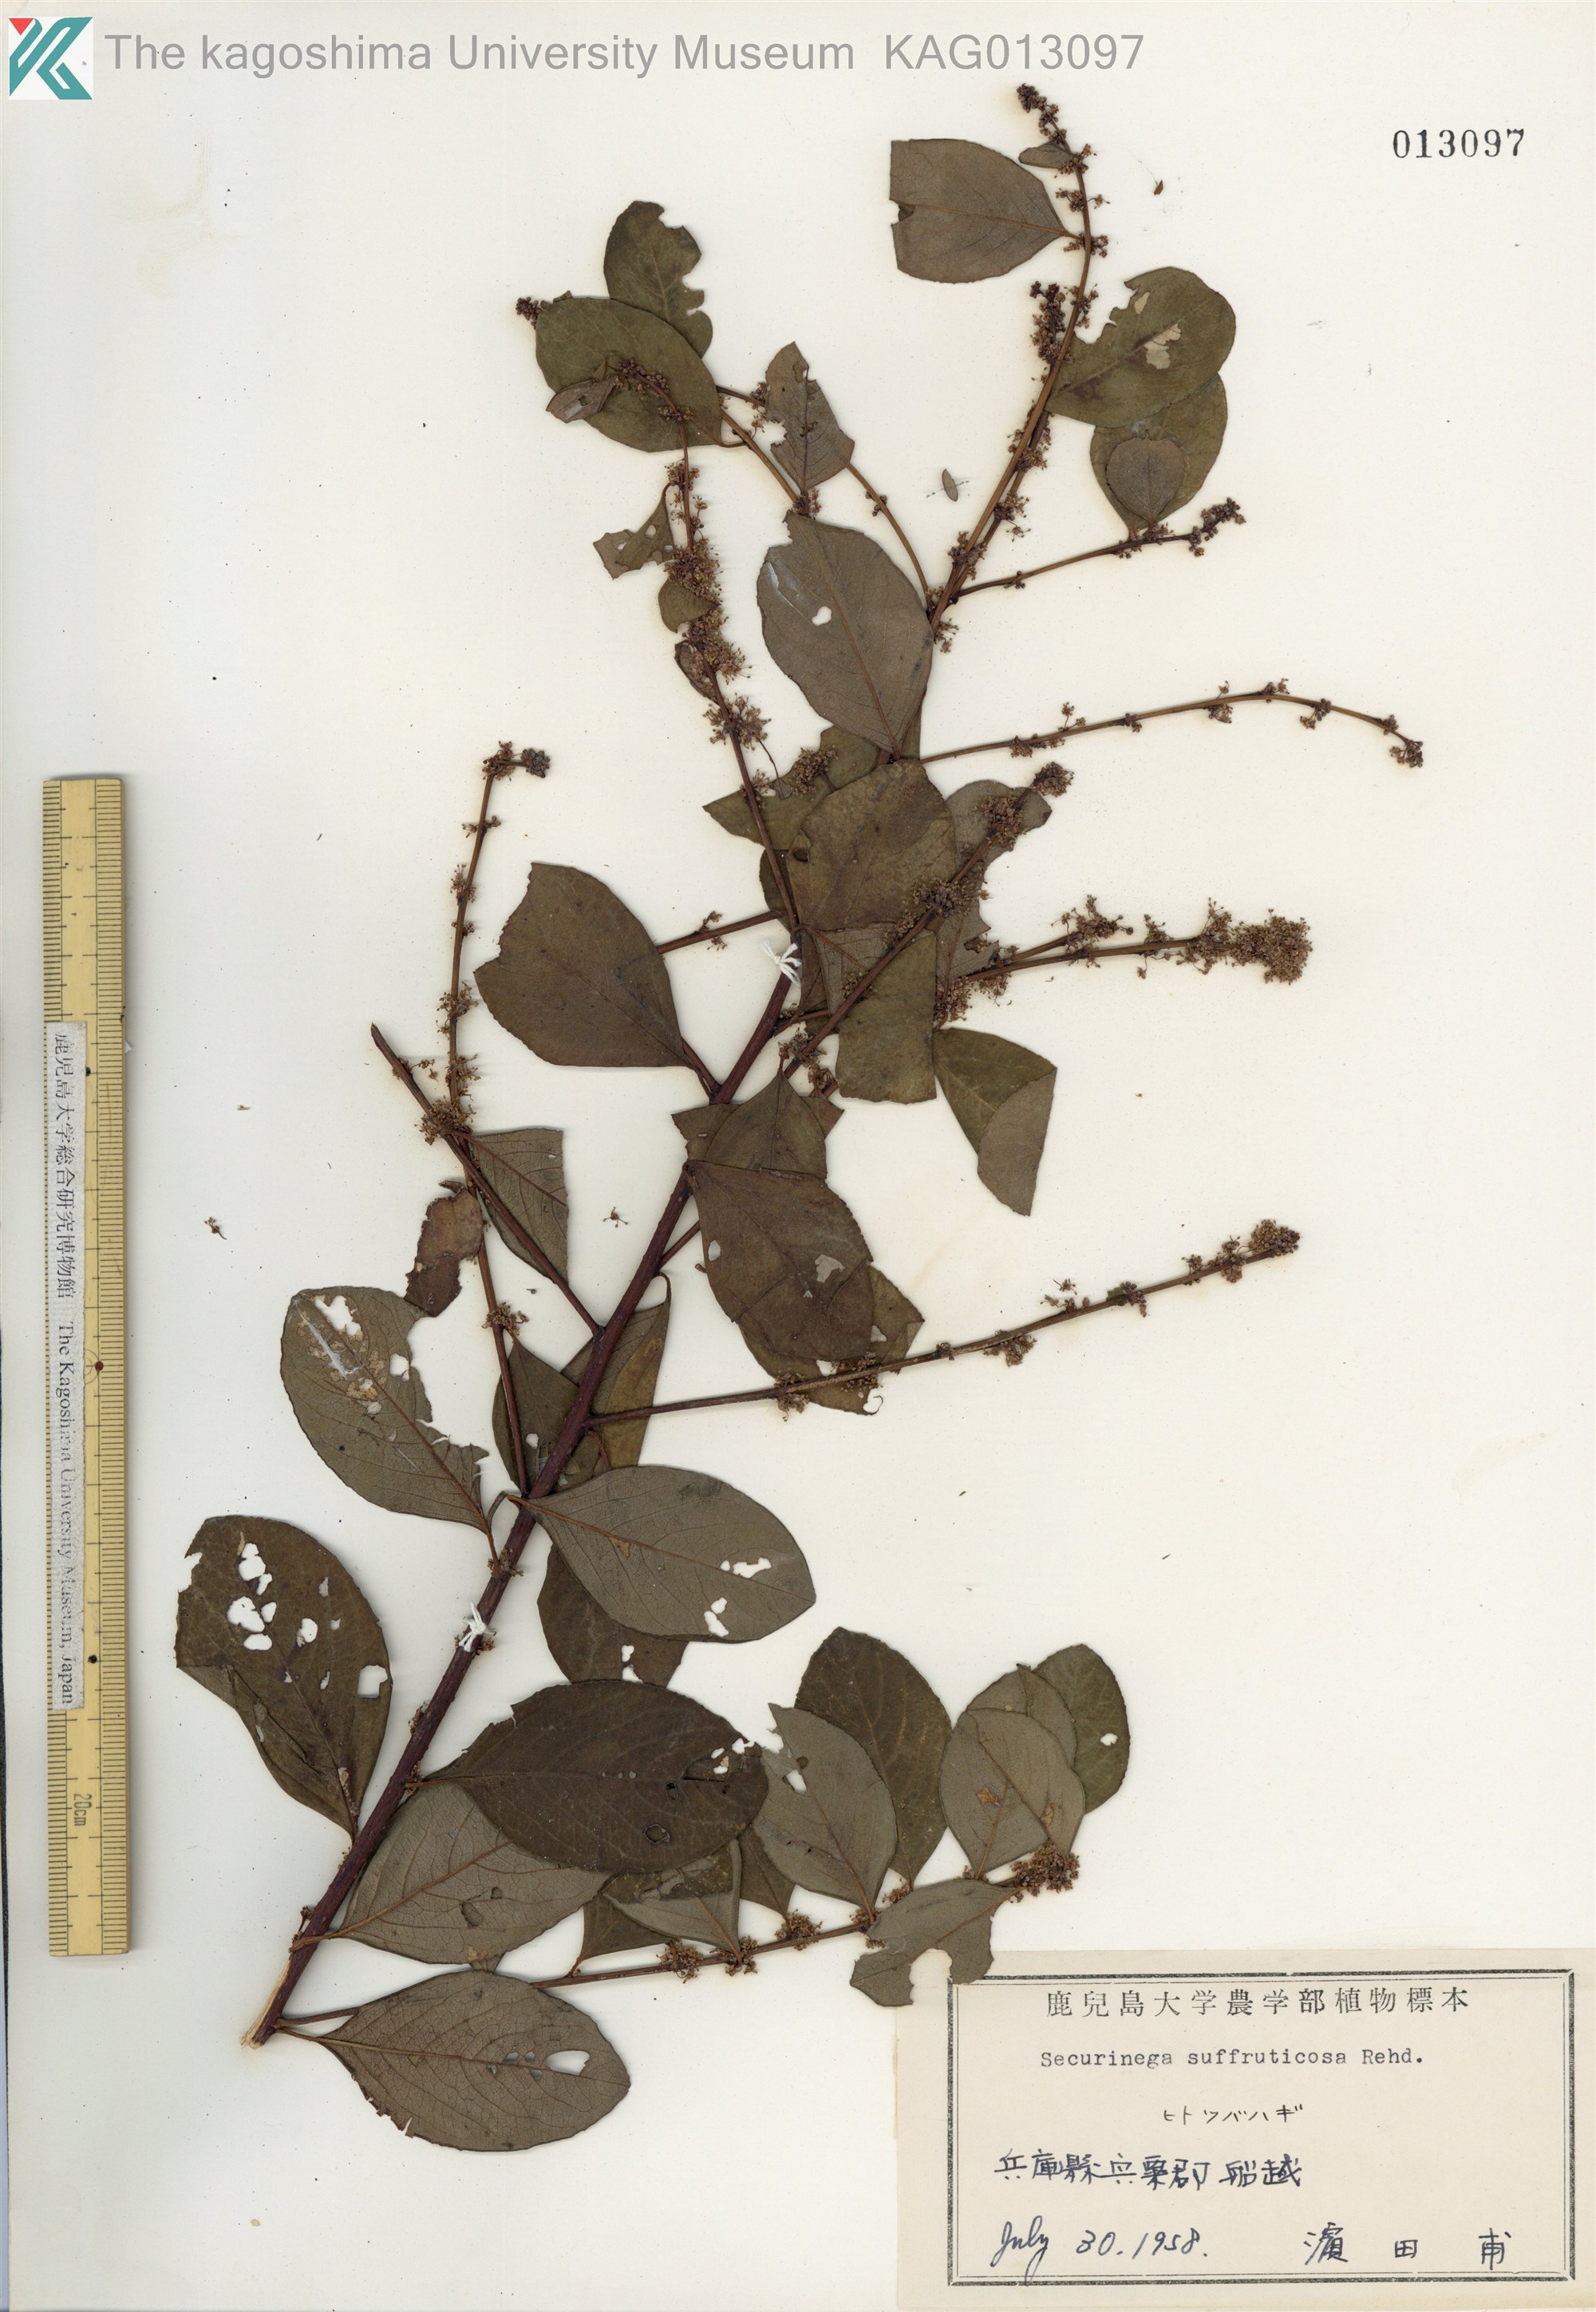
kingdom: Plantae
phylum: Tracheophyta
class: Magnoliopsida
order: Malpighiales
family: Phyllanthaceae
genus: Flueggea
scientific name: Flueggea suffruticosa
